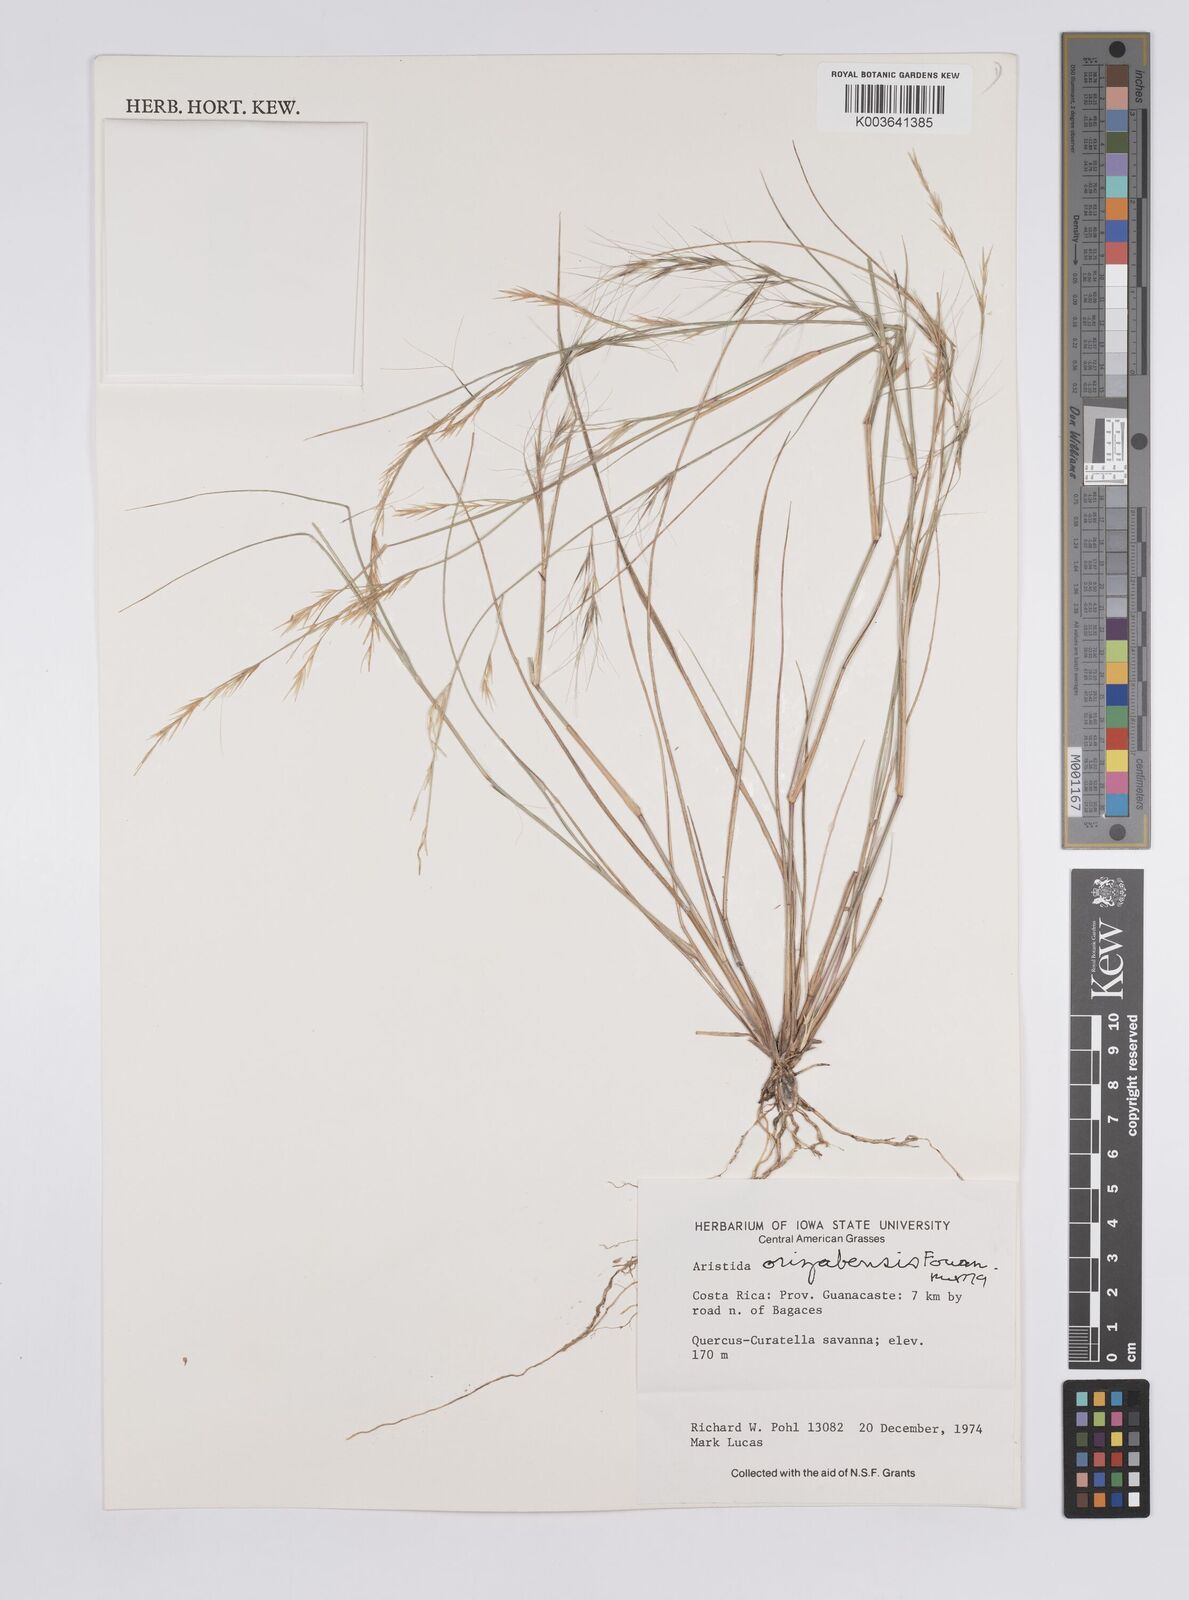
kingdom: Plantae
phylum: Tracheophyta
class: Liliopsida
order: Poales
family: Poaceae
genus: Aristida
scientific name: Aristida gibbosa
